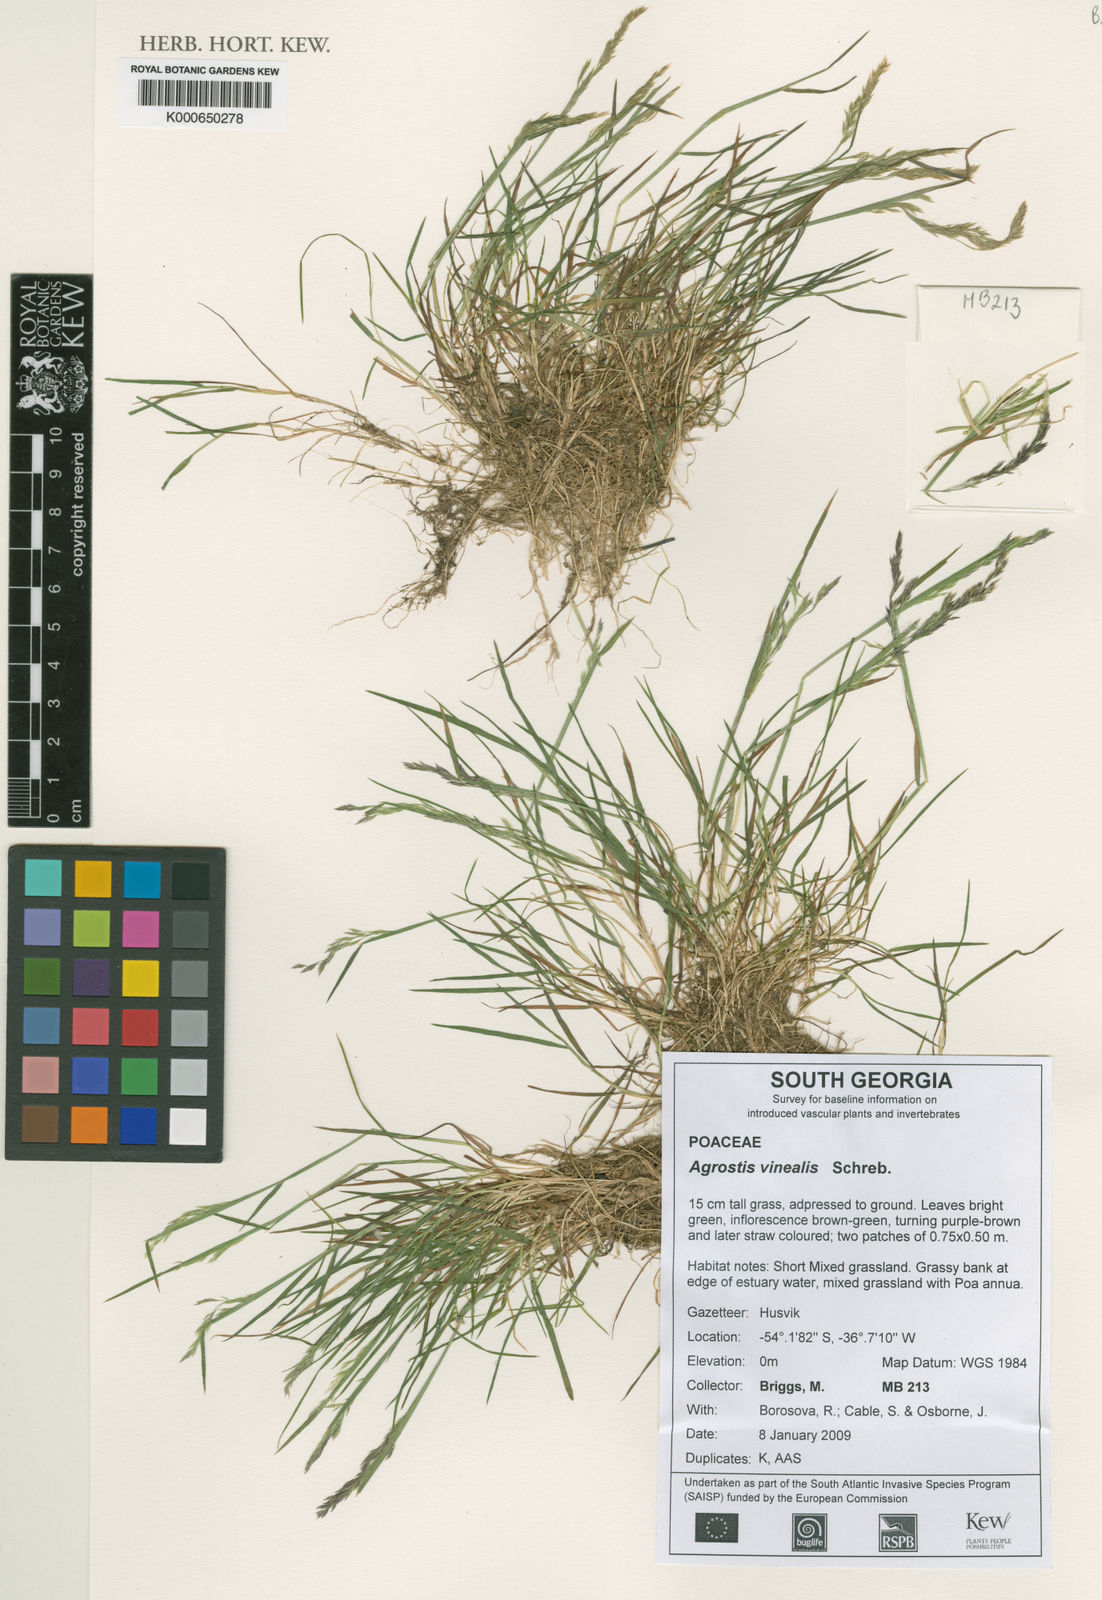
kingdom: Plantae
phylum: Tracheophyta
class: Liliopsida
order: Poales
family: Poaceae
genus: Agrostis
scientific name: Agrostis vinealis
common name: Brown bent
